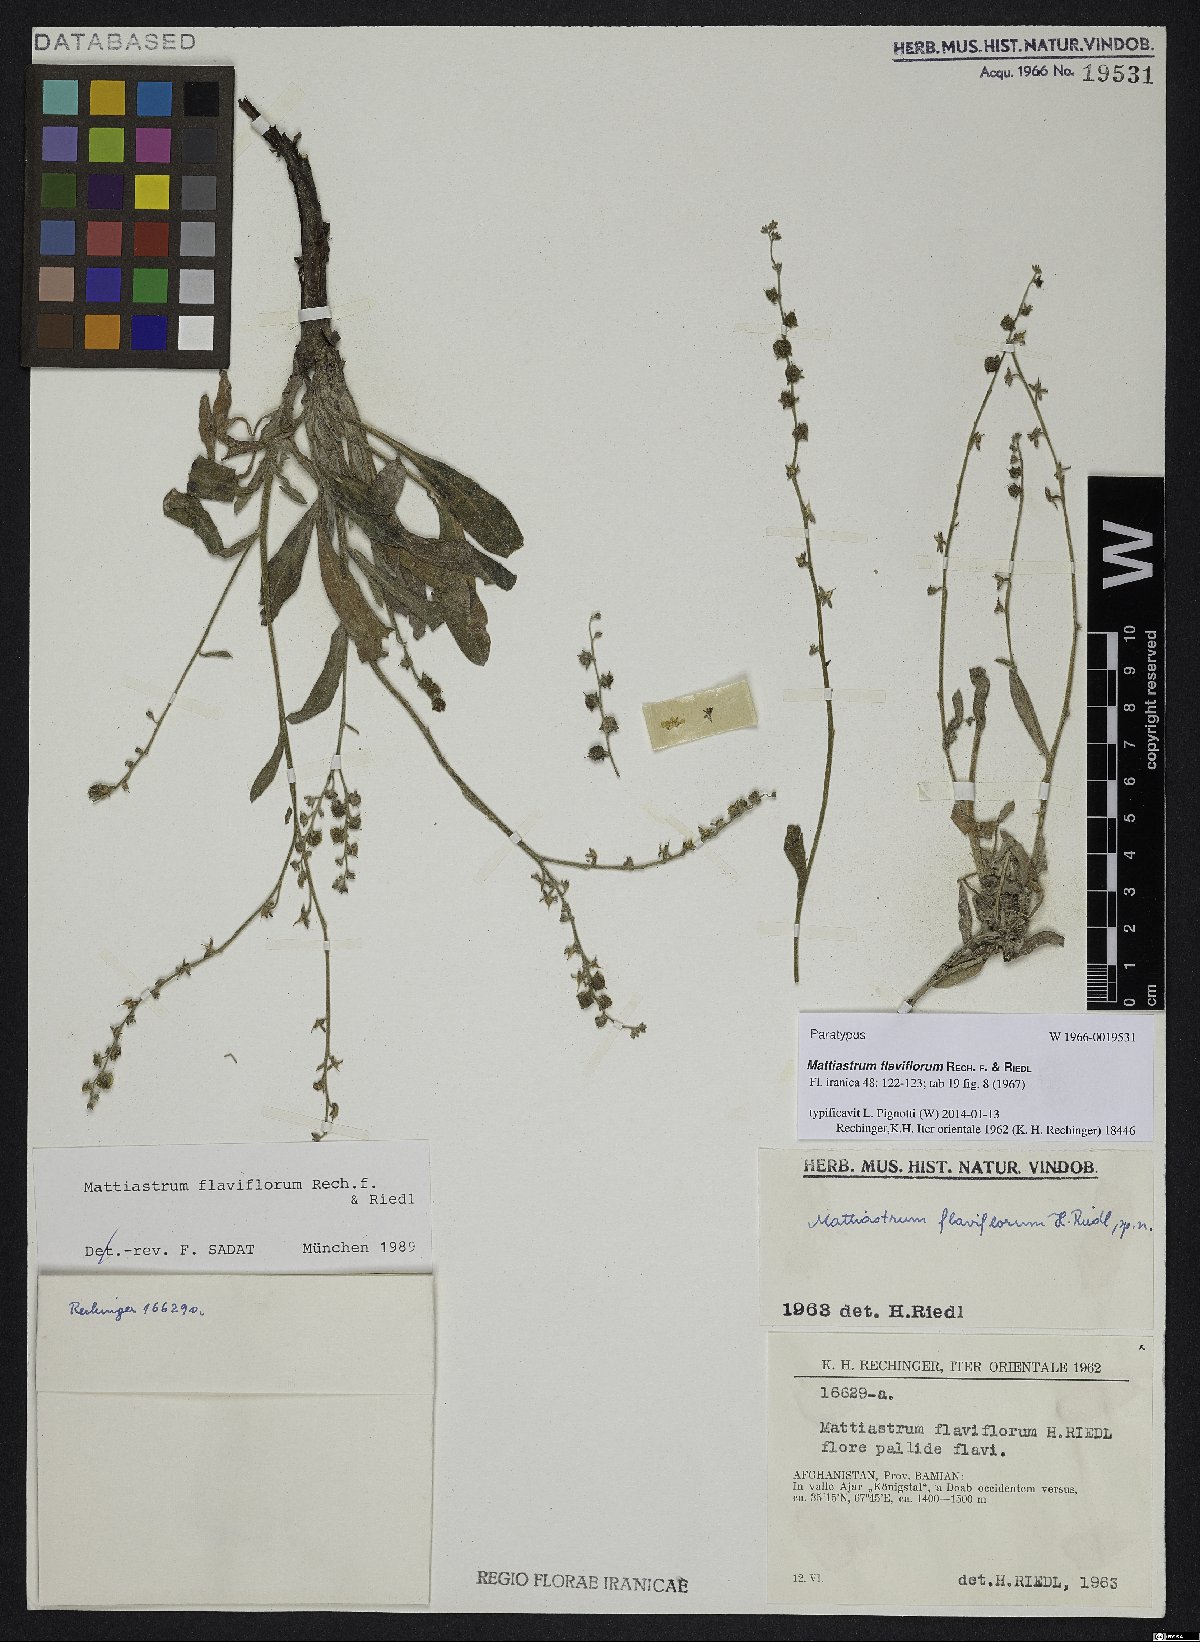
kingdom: Plantae
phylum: Tracheophyta
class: Magnoliopsida
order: Boraginales
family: Boraginaceae
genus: Paracaryum
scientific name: Paracaryum flaviflorum
